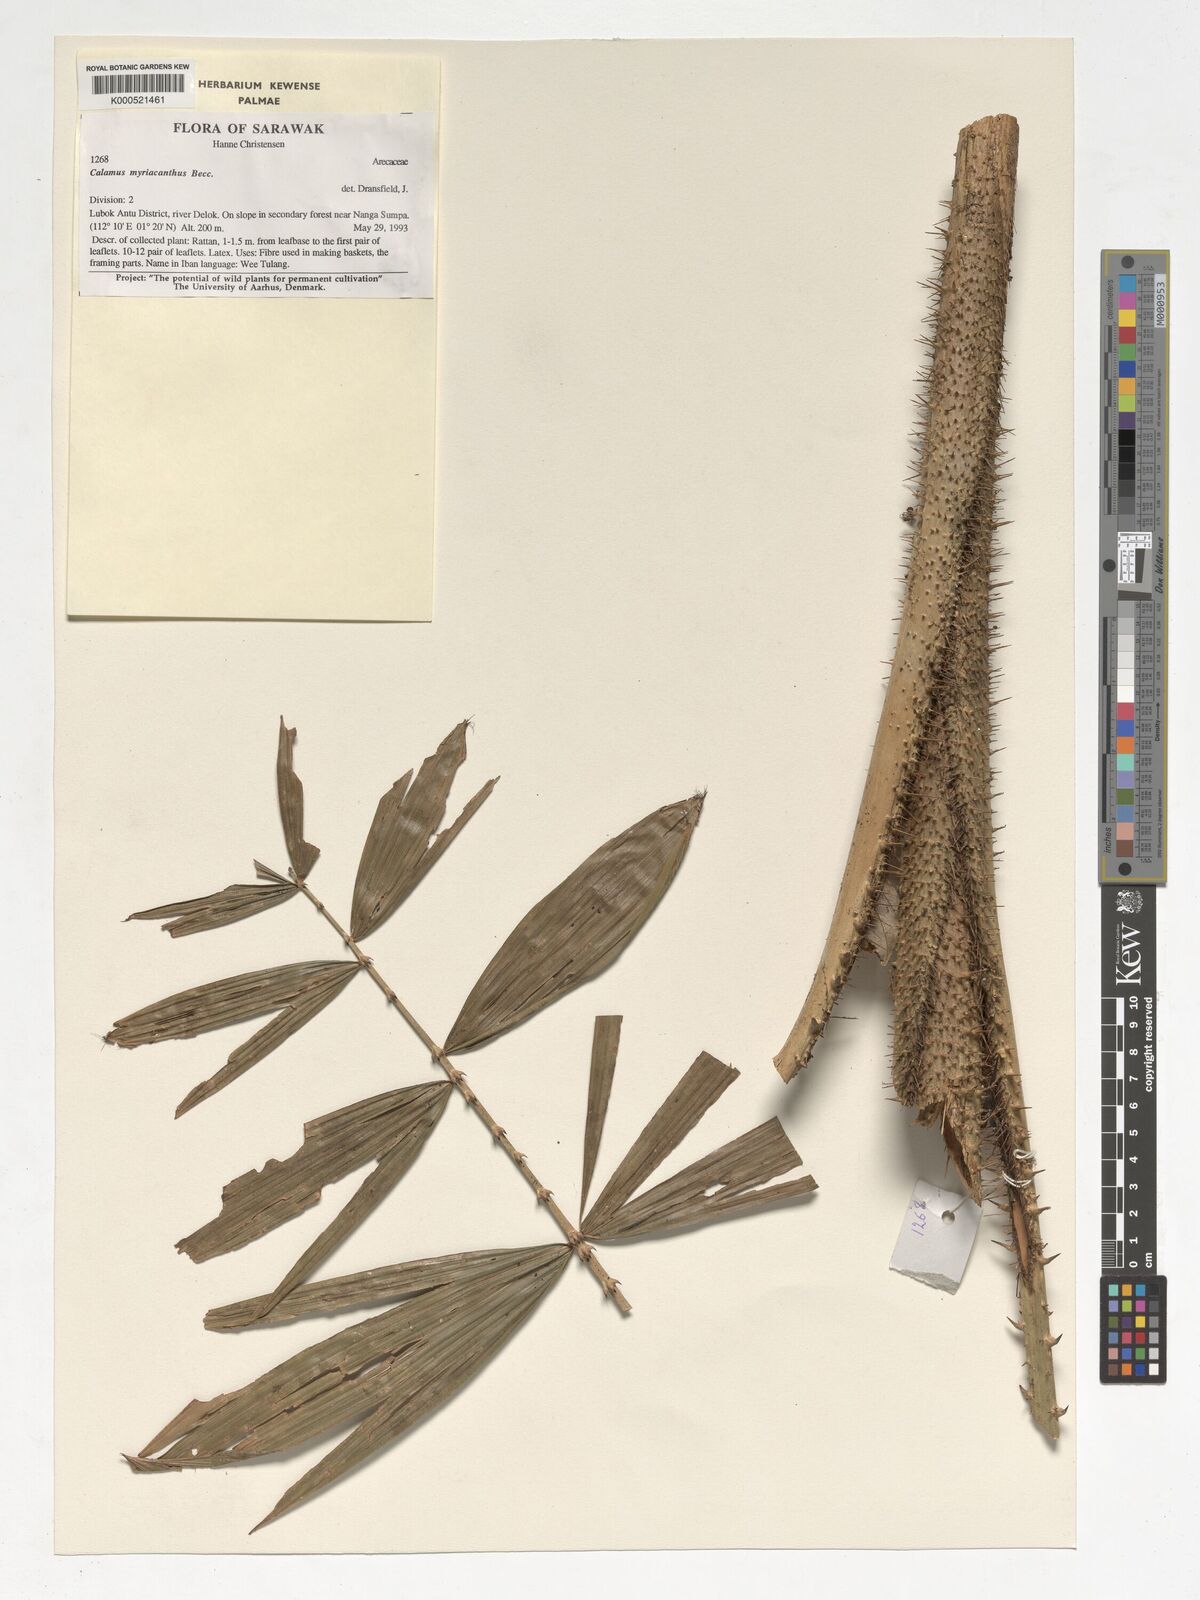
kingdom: Plantae
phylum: Tracheophyta
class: Liliopsida
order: Arecales
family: Arecaceae
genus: Calamus
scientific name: Calamus myriacanthus
